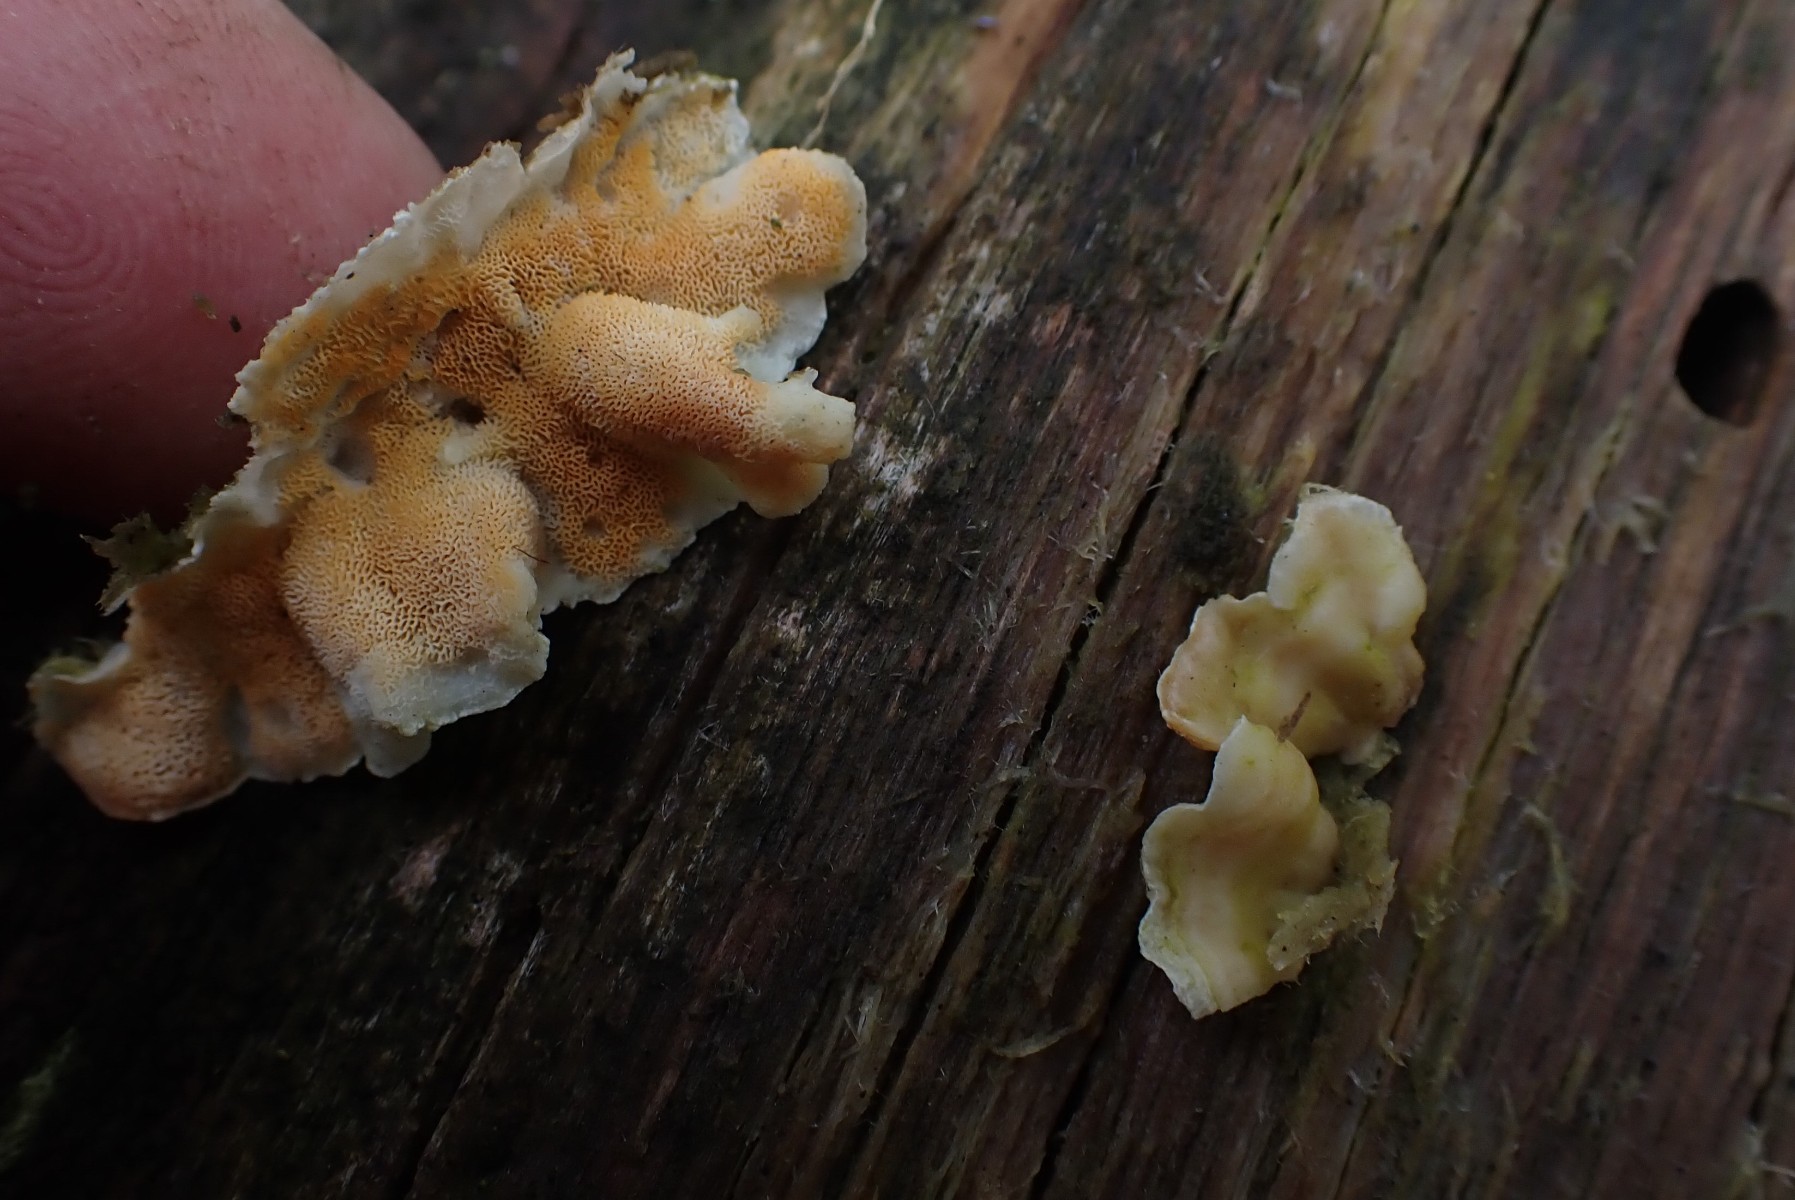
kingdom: Fungi
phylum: Basidiomycota
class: Agaricomycetes
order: Polyporales
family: Incrustoporiaceae
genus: Skeletocutis
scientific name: Skeletocutis amorpha
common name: orange krystalporesvamp
